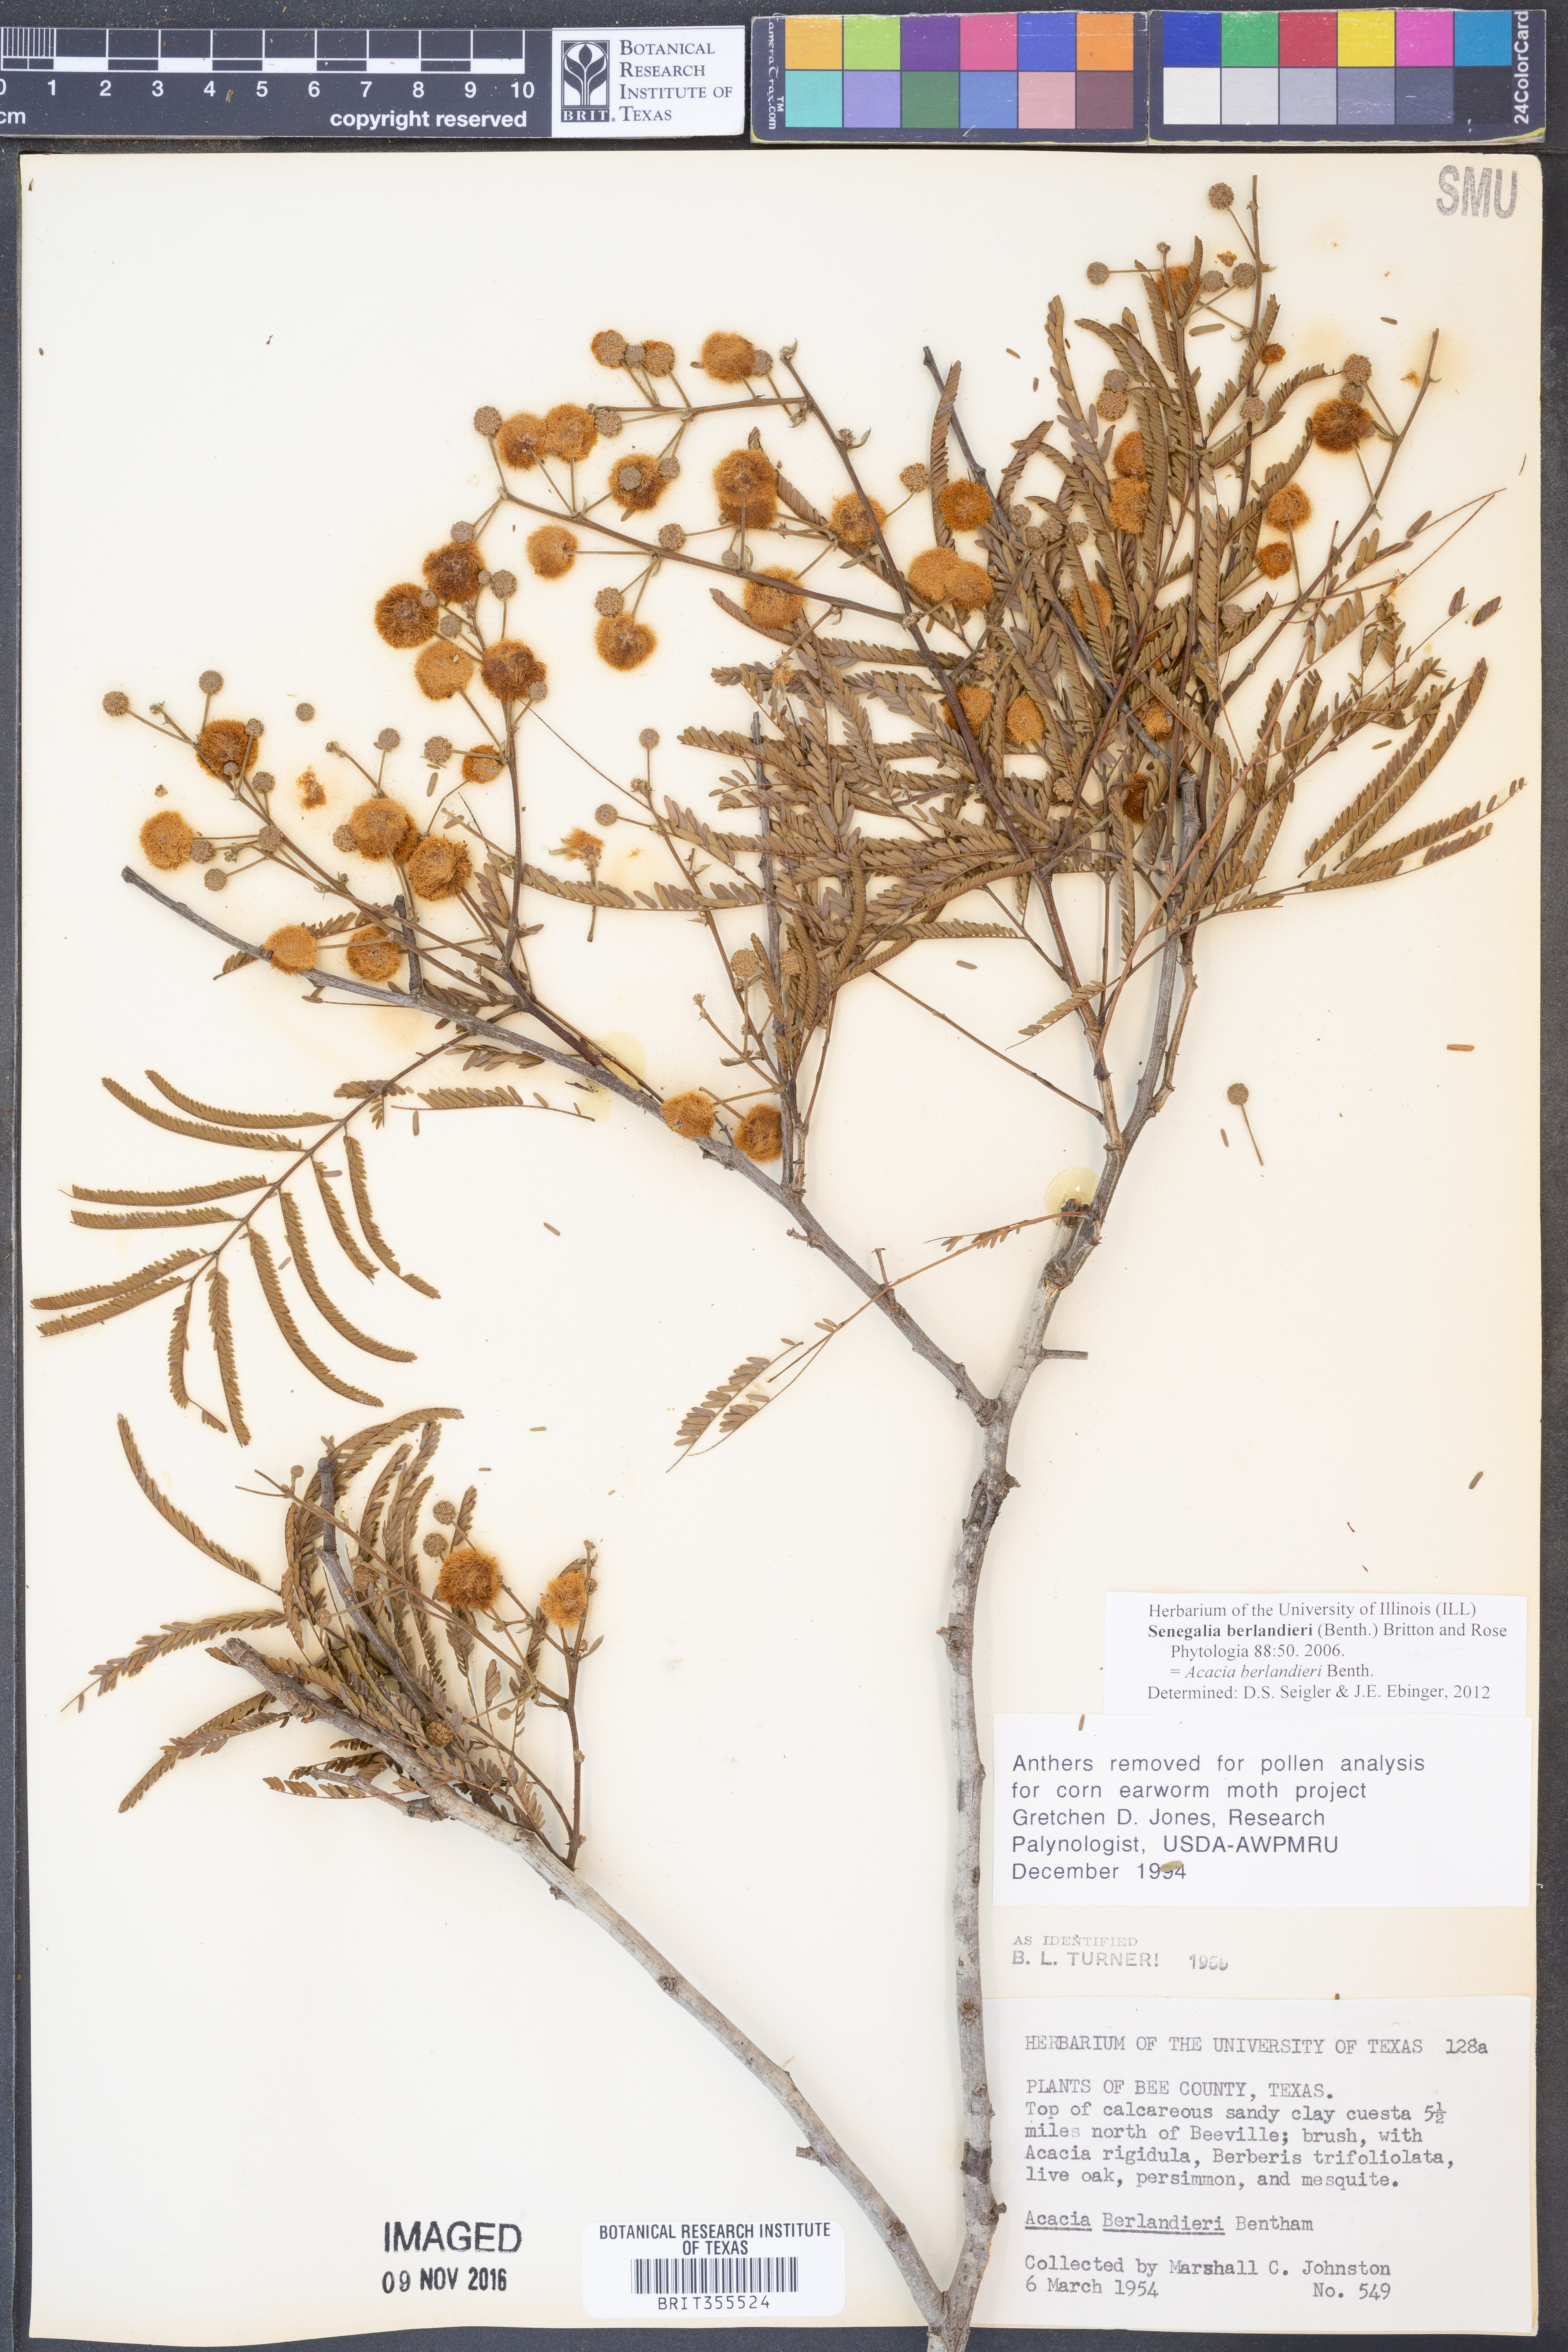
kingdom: Plantae
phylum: Tracheophyta
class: Magnoliopsida
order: Fabales
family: Fabaceae
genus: Senegalia
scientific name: Senegalia berlandieri
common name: Berlandier acacia
